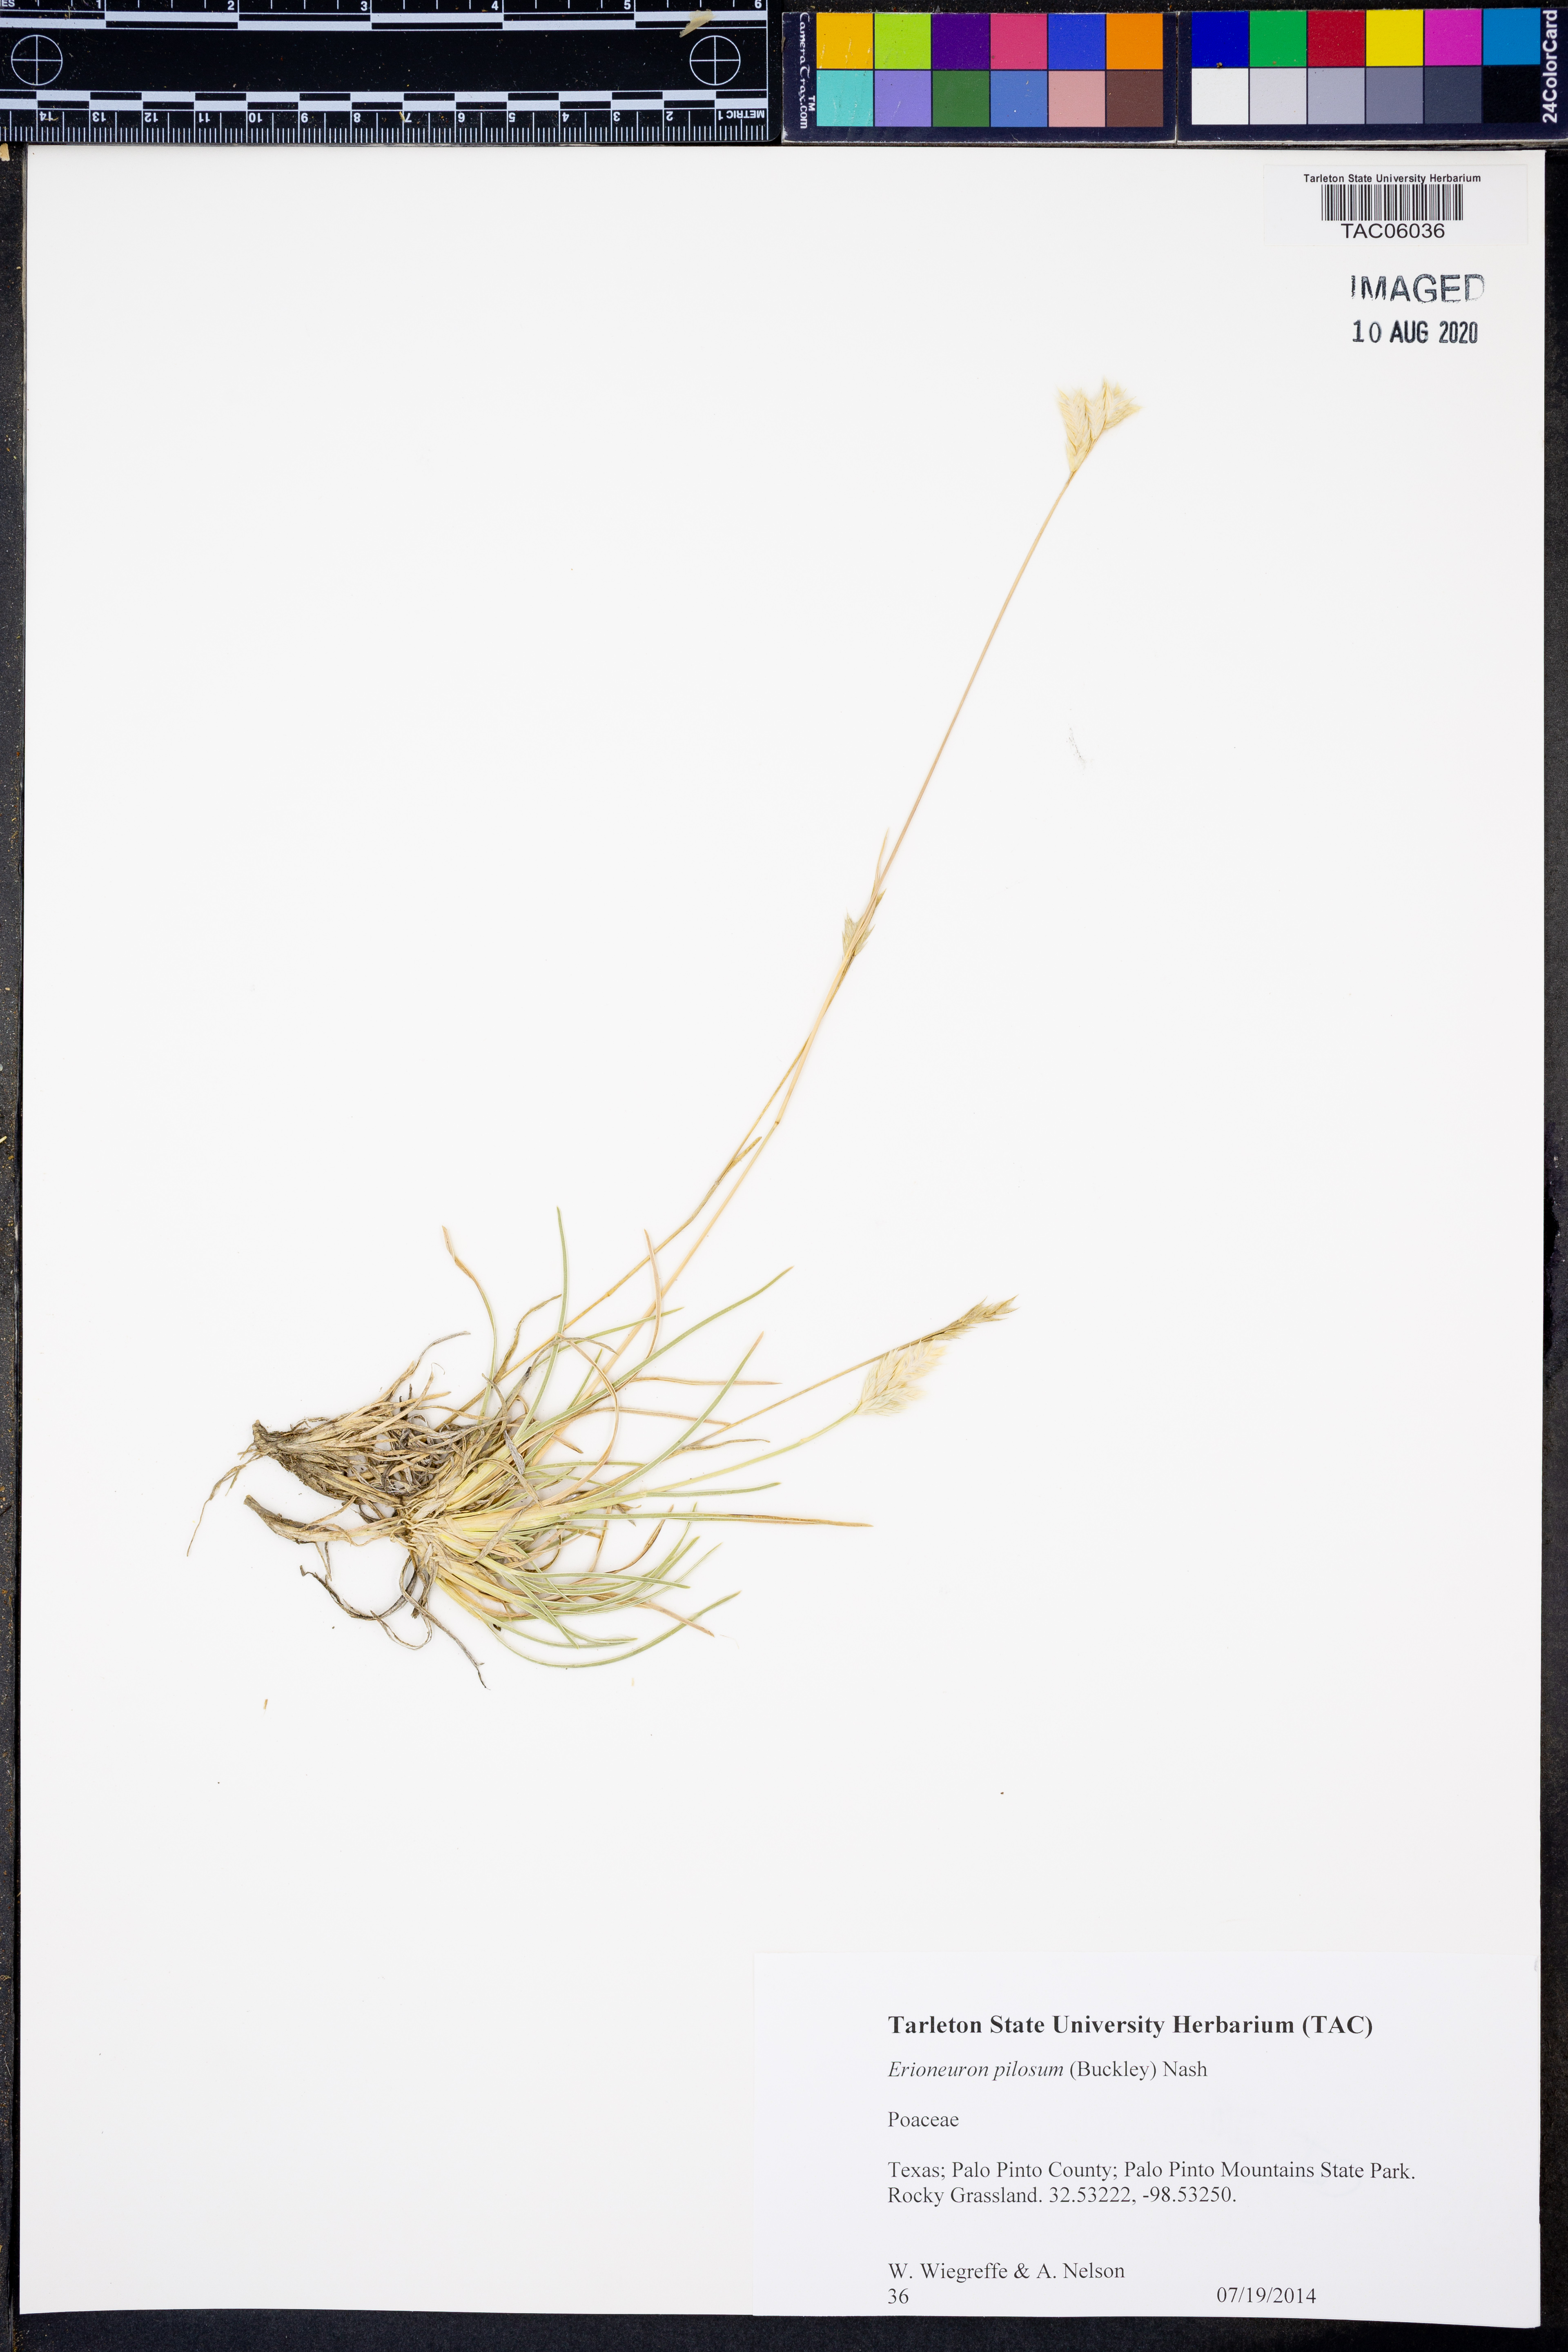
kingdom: Plantae
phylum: Tracheophyta
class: Liliopsida
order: Poales
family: Poaceae
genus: Erioneuron
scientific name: Erioneuron pilosum
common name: Hairy woolly grass
